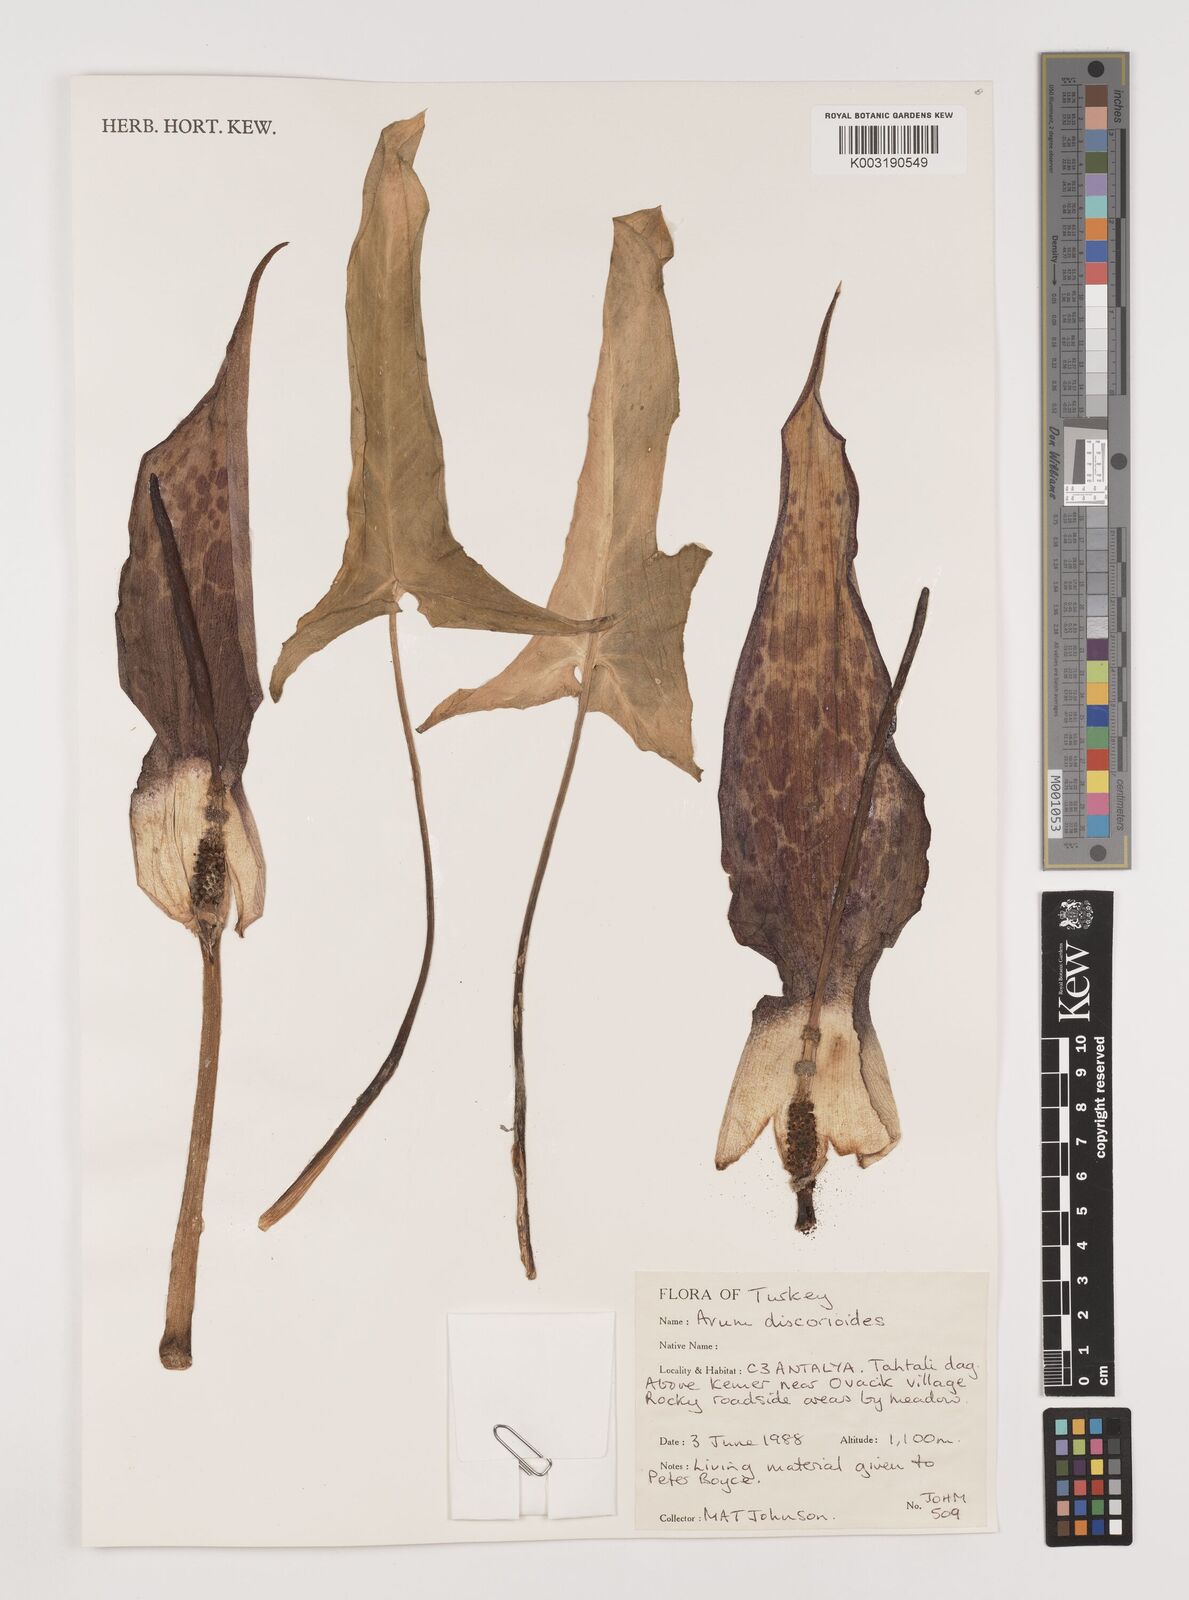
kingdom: Plantae
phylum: Tracheophyta
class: Liliopsida
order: Alismatales
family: Araceae
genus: Arum
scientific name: Arum dioscoridis
